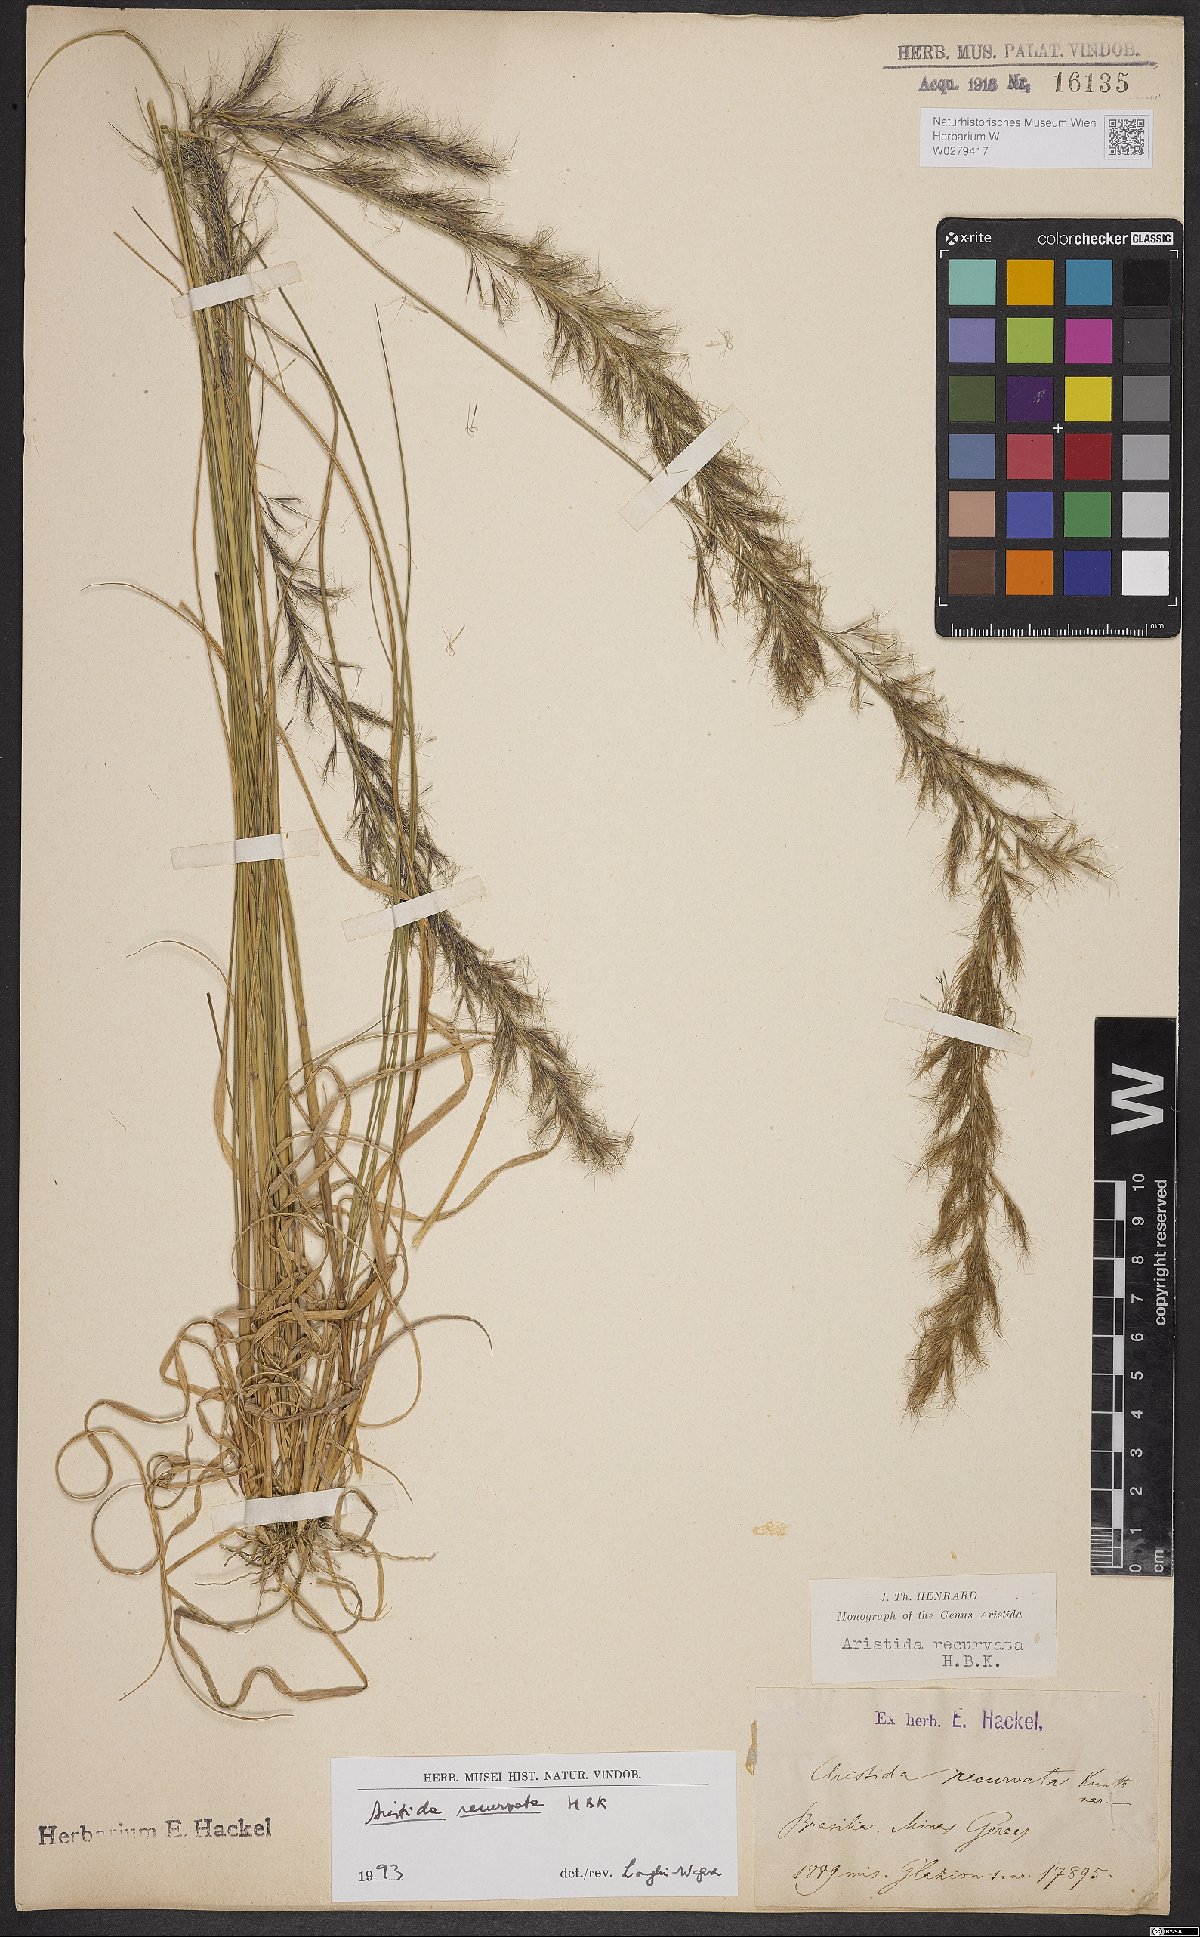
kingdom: Plantae
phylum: Tracheophyta
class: Liliopsida
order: Poales
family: Poaceae
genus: Aristida
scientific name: Aristida recurvata
